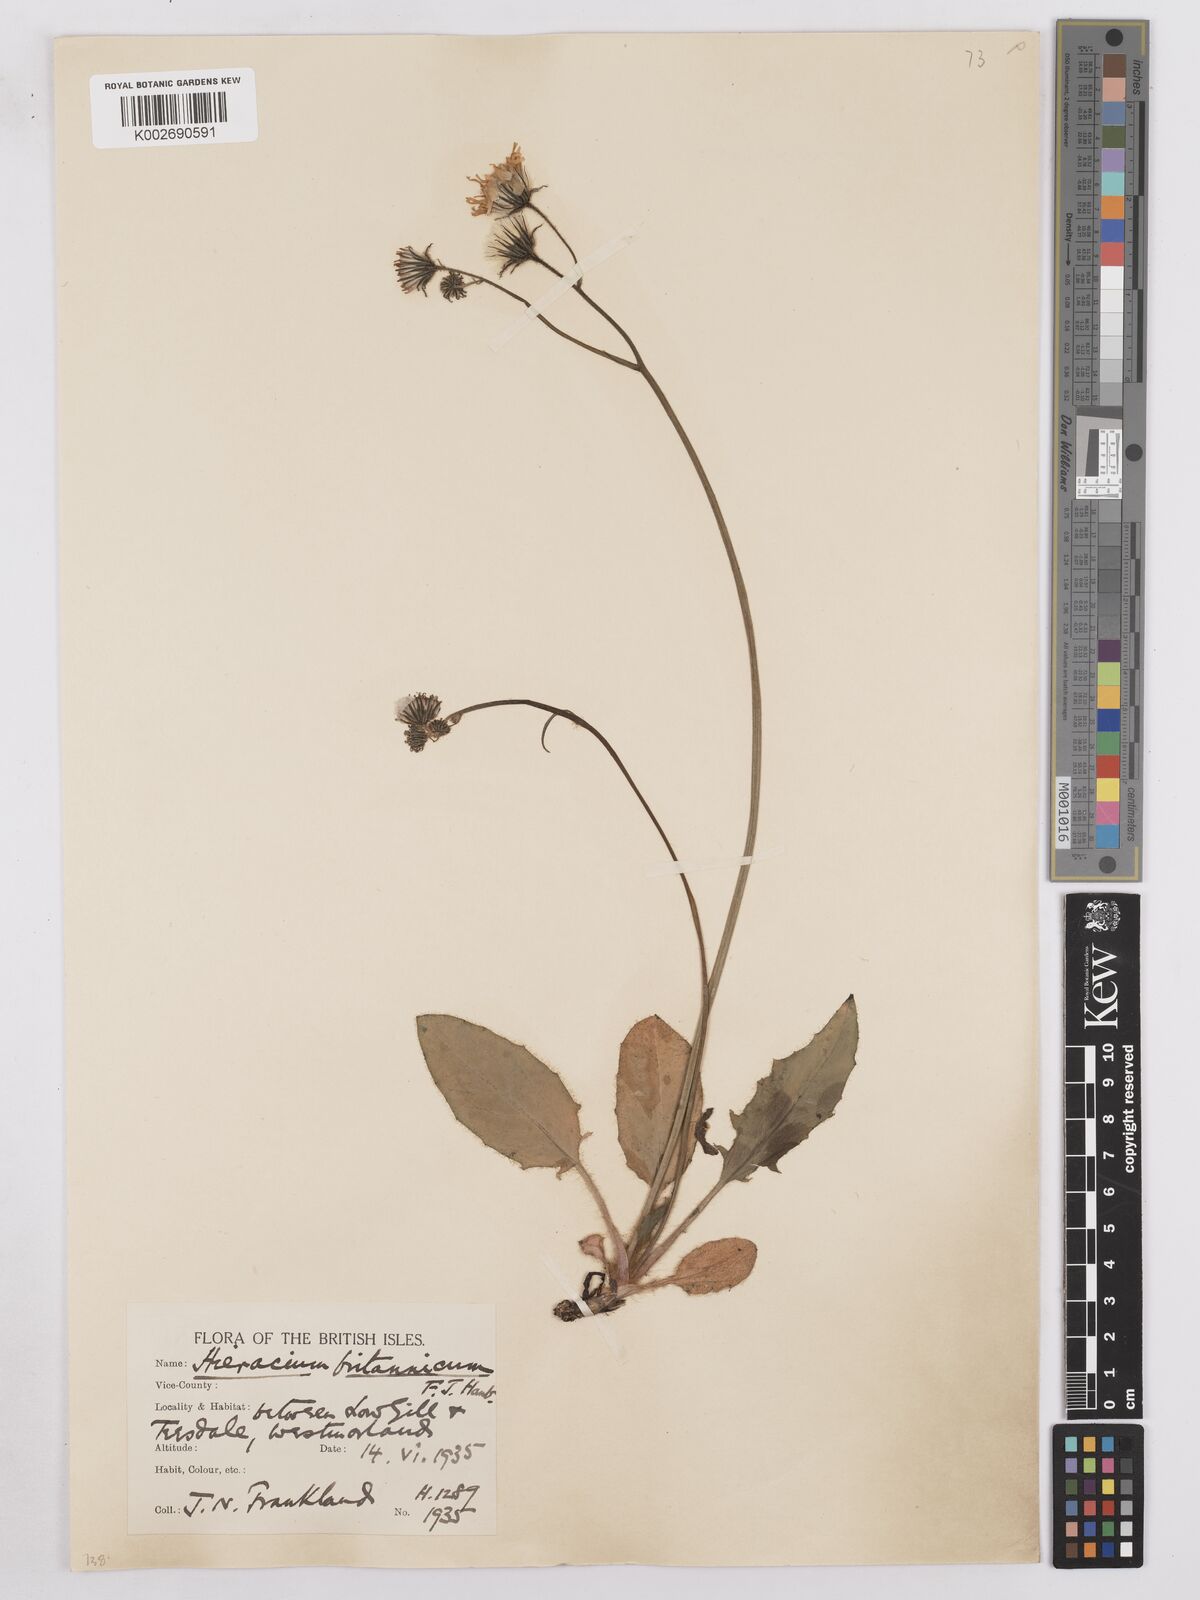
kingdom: Plantae
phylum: Tracheophyta
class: Magnoliopsida
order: Asterales
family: Asteraceae
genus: Hieracium
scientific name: Hieracium britannicum
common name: British hawkweed
